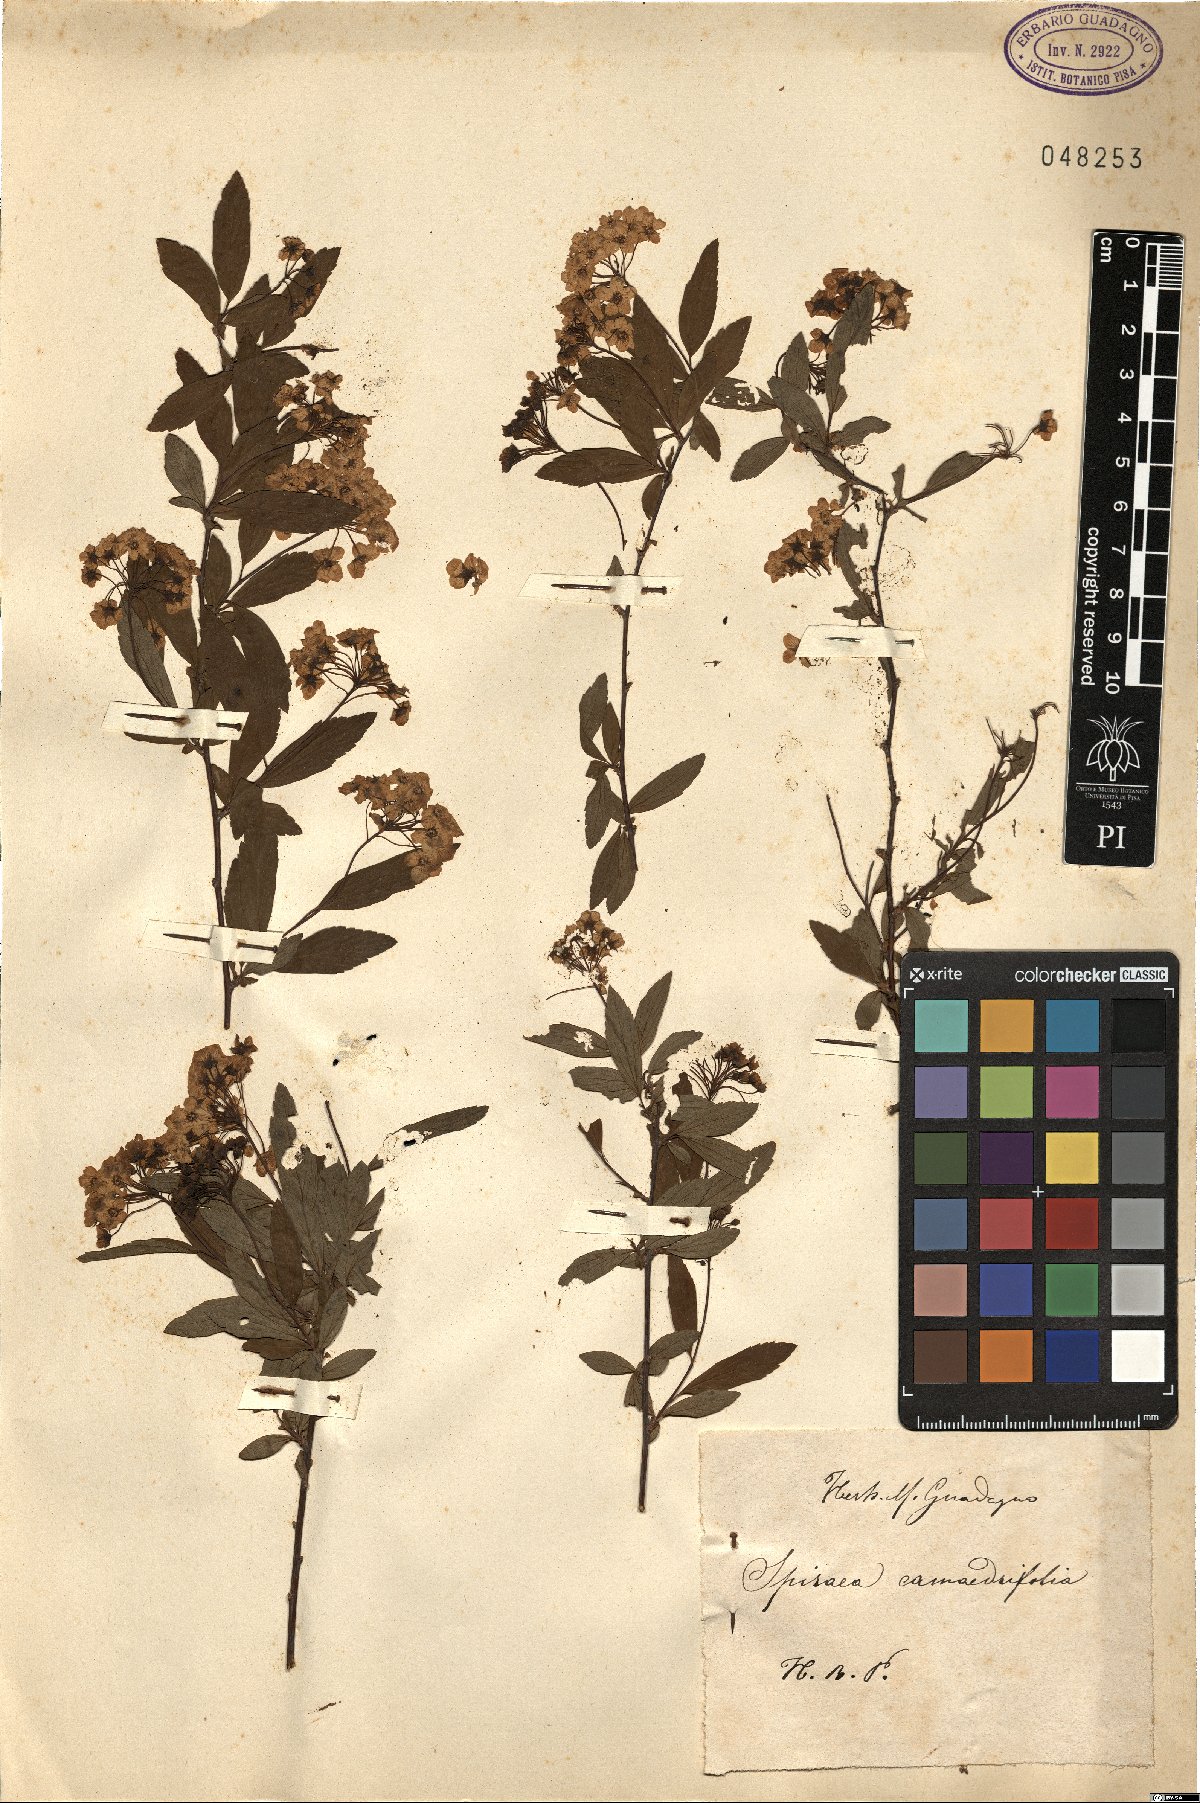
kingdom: Plantae
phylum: Tracheophyta
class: Magnoliopsida
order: Rosales
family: Rosaceae
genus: Spiraea
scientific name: Spiraea chamaedryfolia
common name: Elm-leaved spiraea
